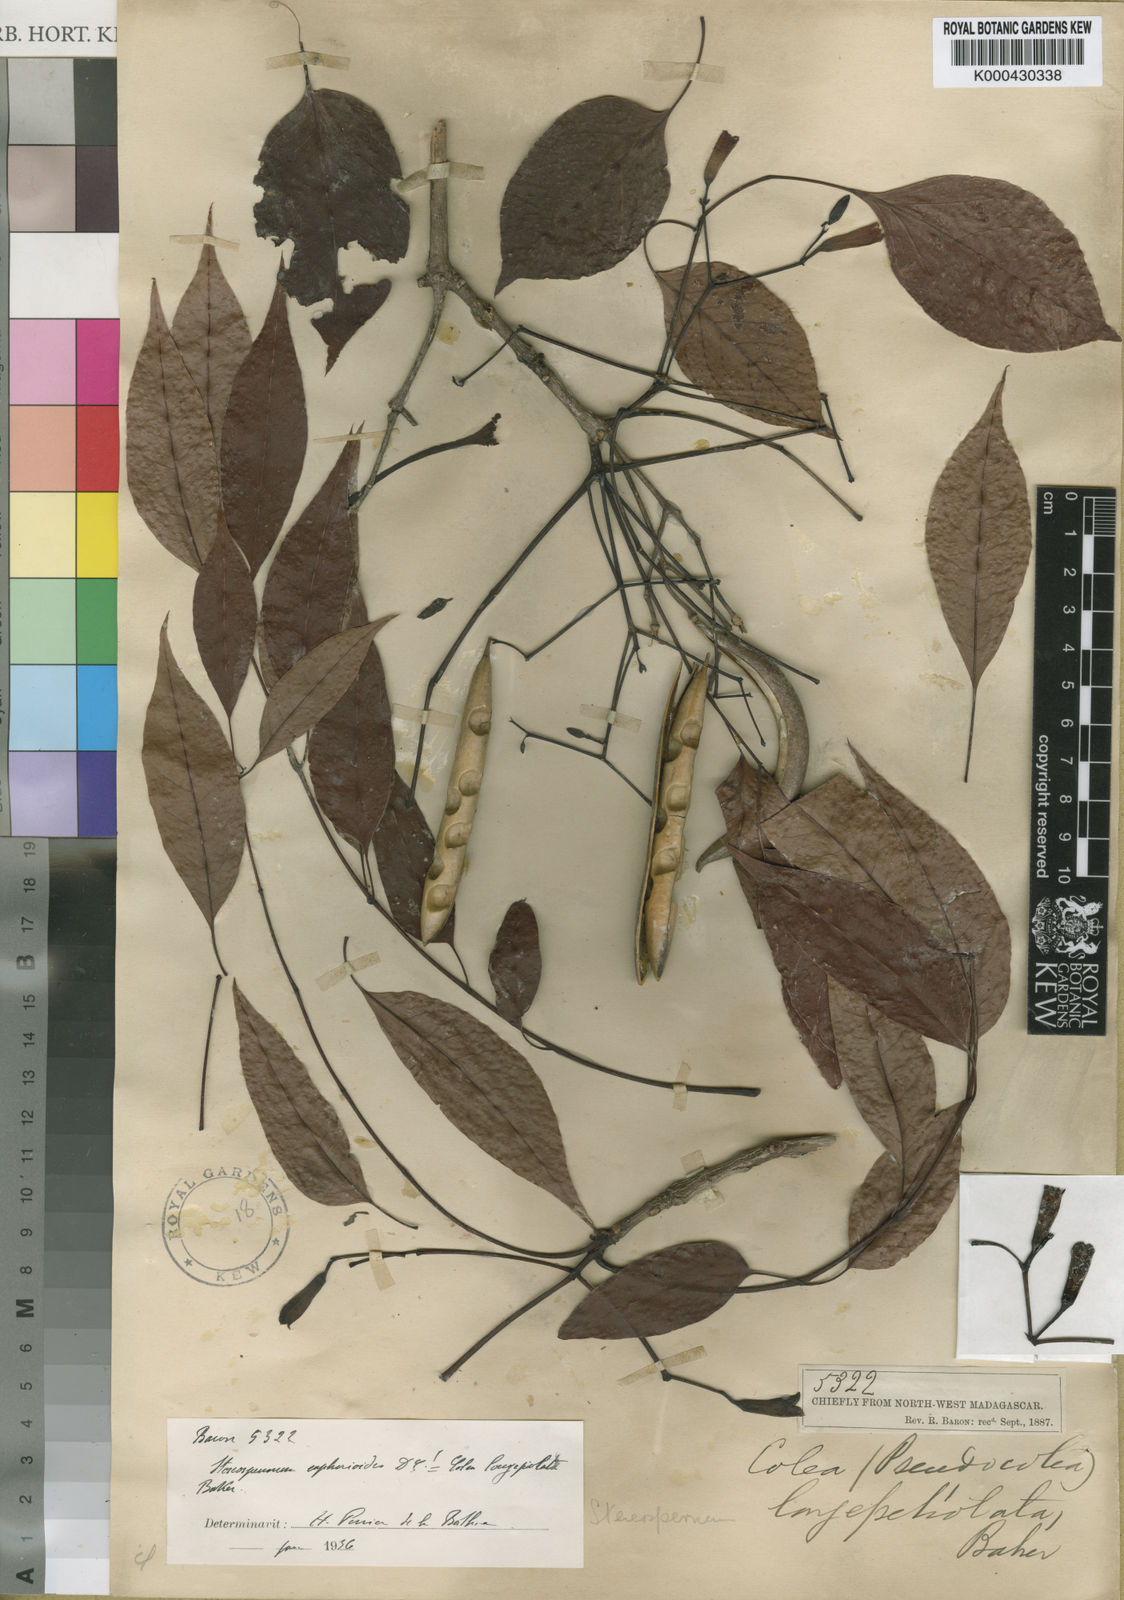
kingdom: Plantae
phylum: Tracheophyta
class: Magnoliopsida
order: Lamiales
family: Bignoniaceae
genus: Stereospermum
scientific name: Stereospermum euphorioides
